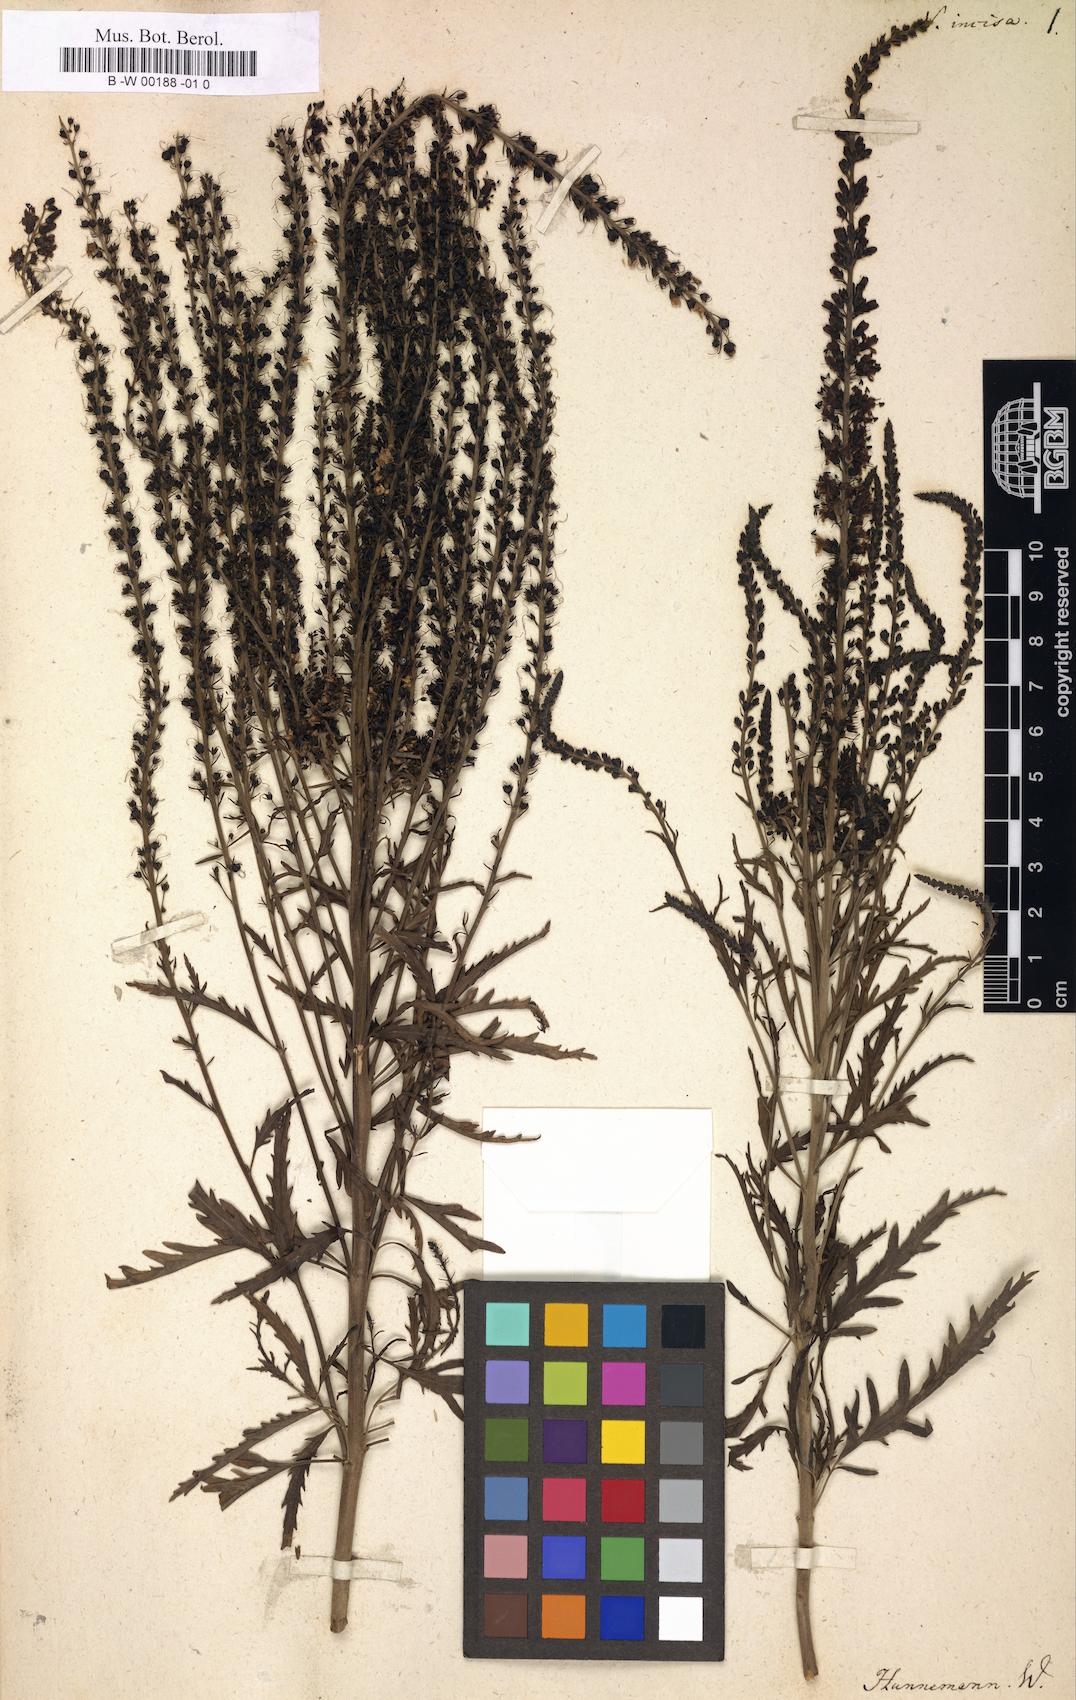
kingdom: Plantae
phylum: Tracheophyta
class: Magnoliopsida
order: Lamiales
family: Plantaginaceae
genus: Veronica
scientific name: Veronica
